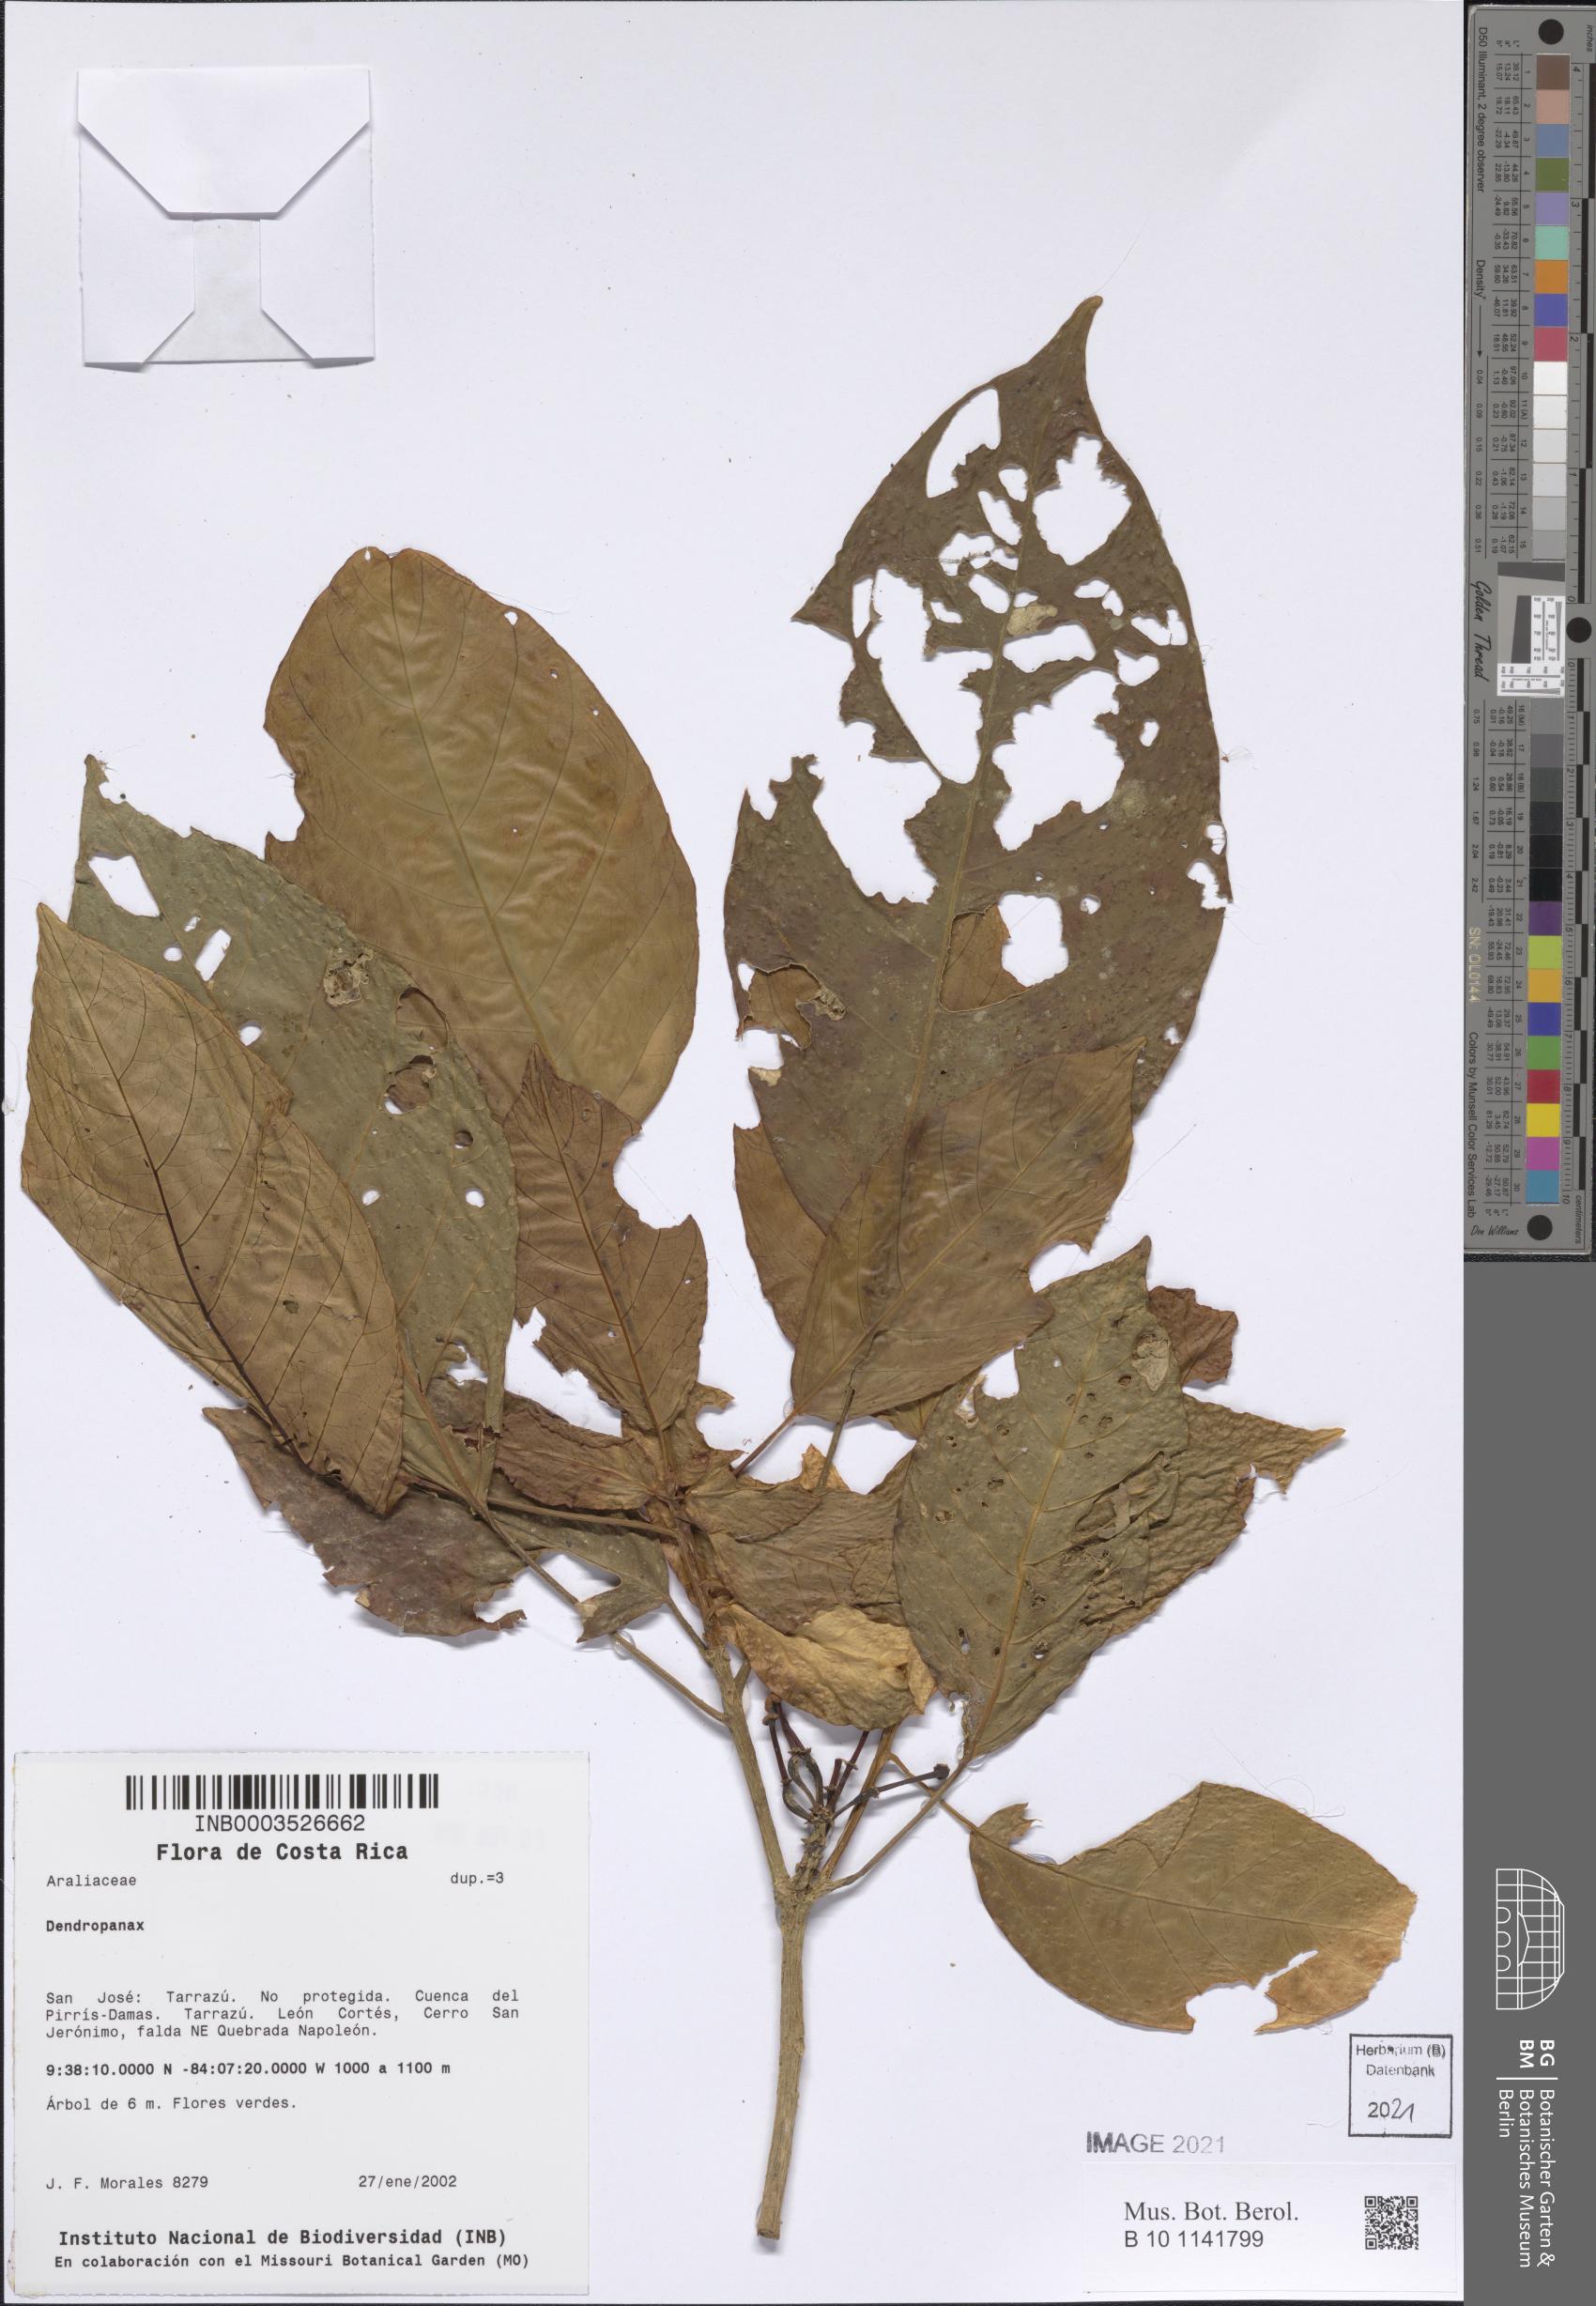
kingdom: Plantae
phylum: Tracheophyta
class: Magnoliopsida
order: Apiales
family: Araliaceae
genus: Dendropanax
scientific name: Dendropanax
